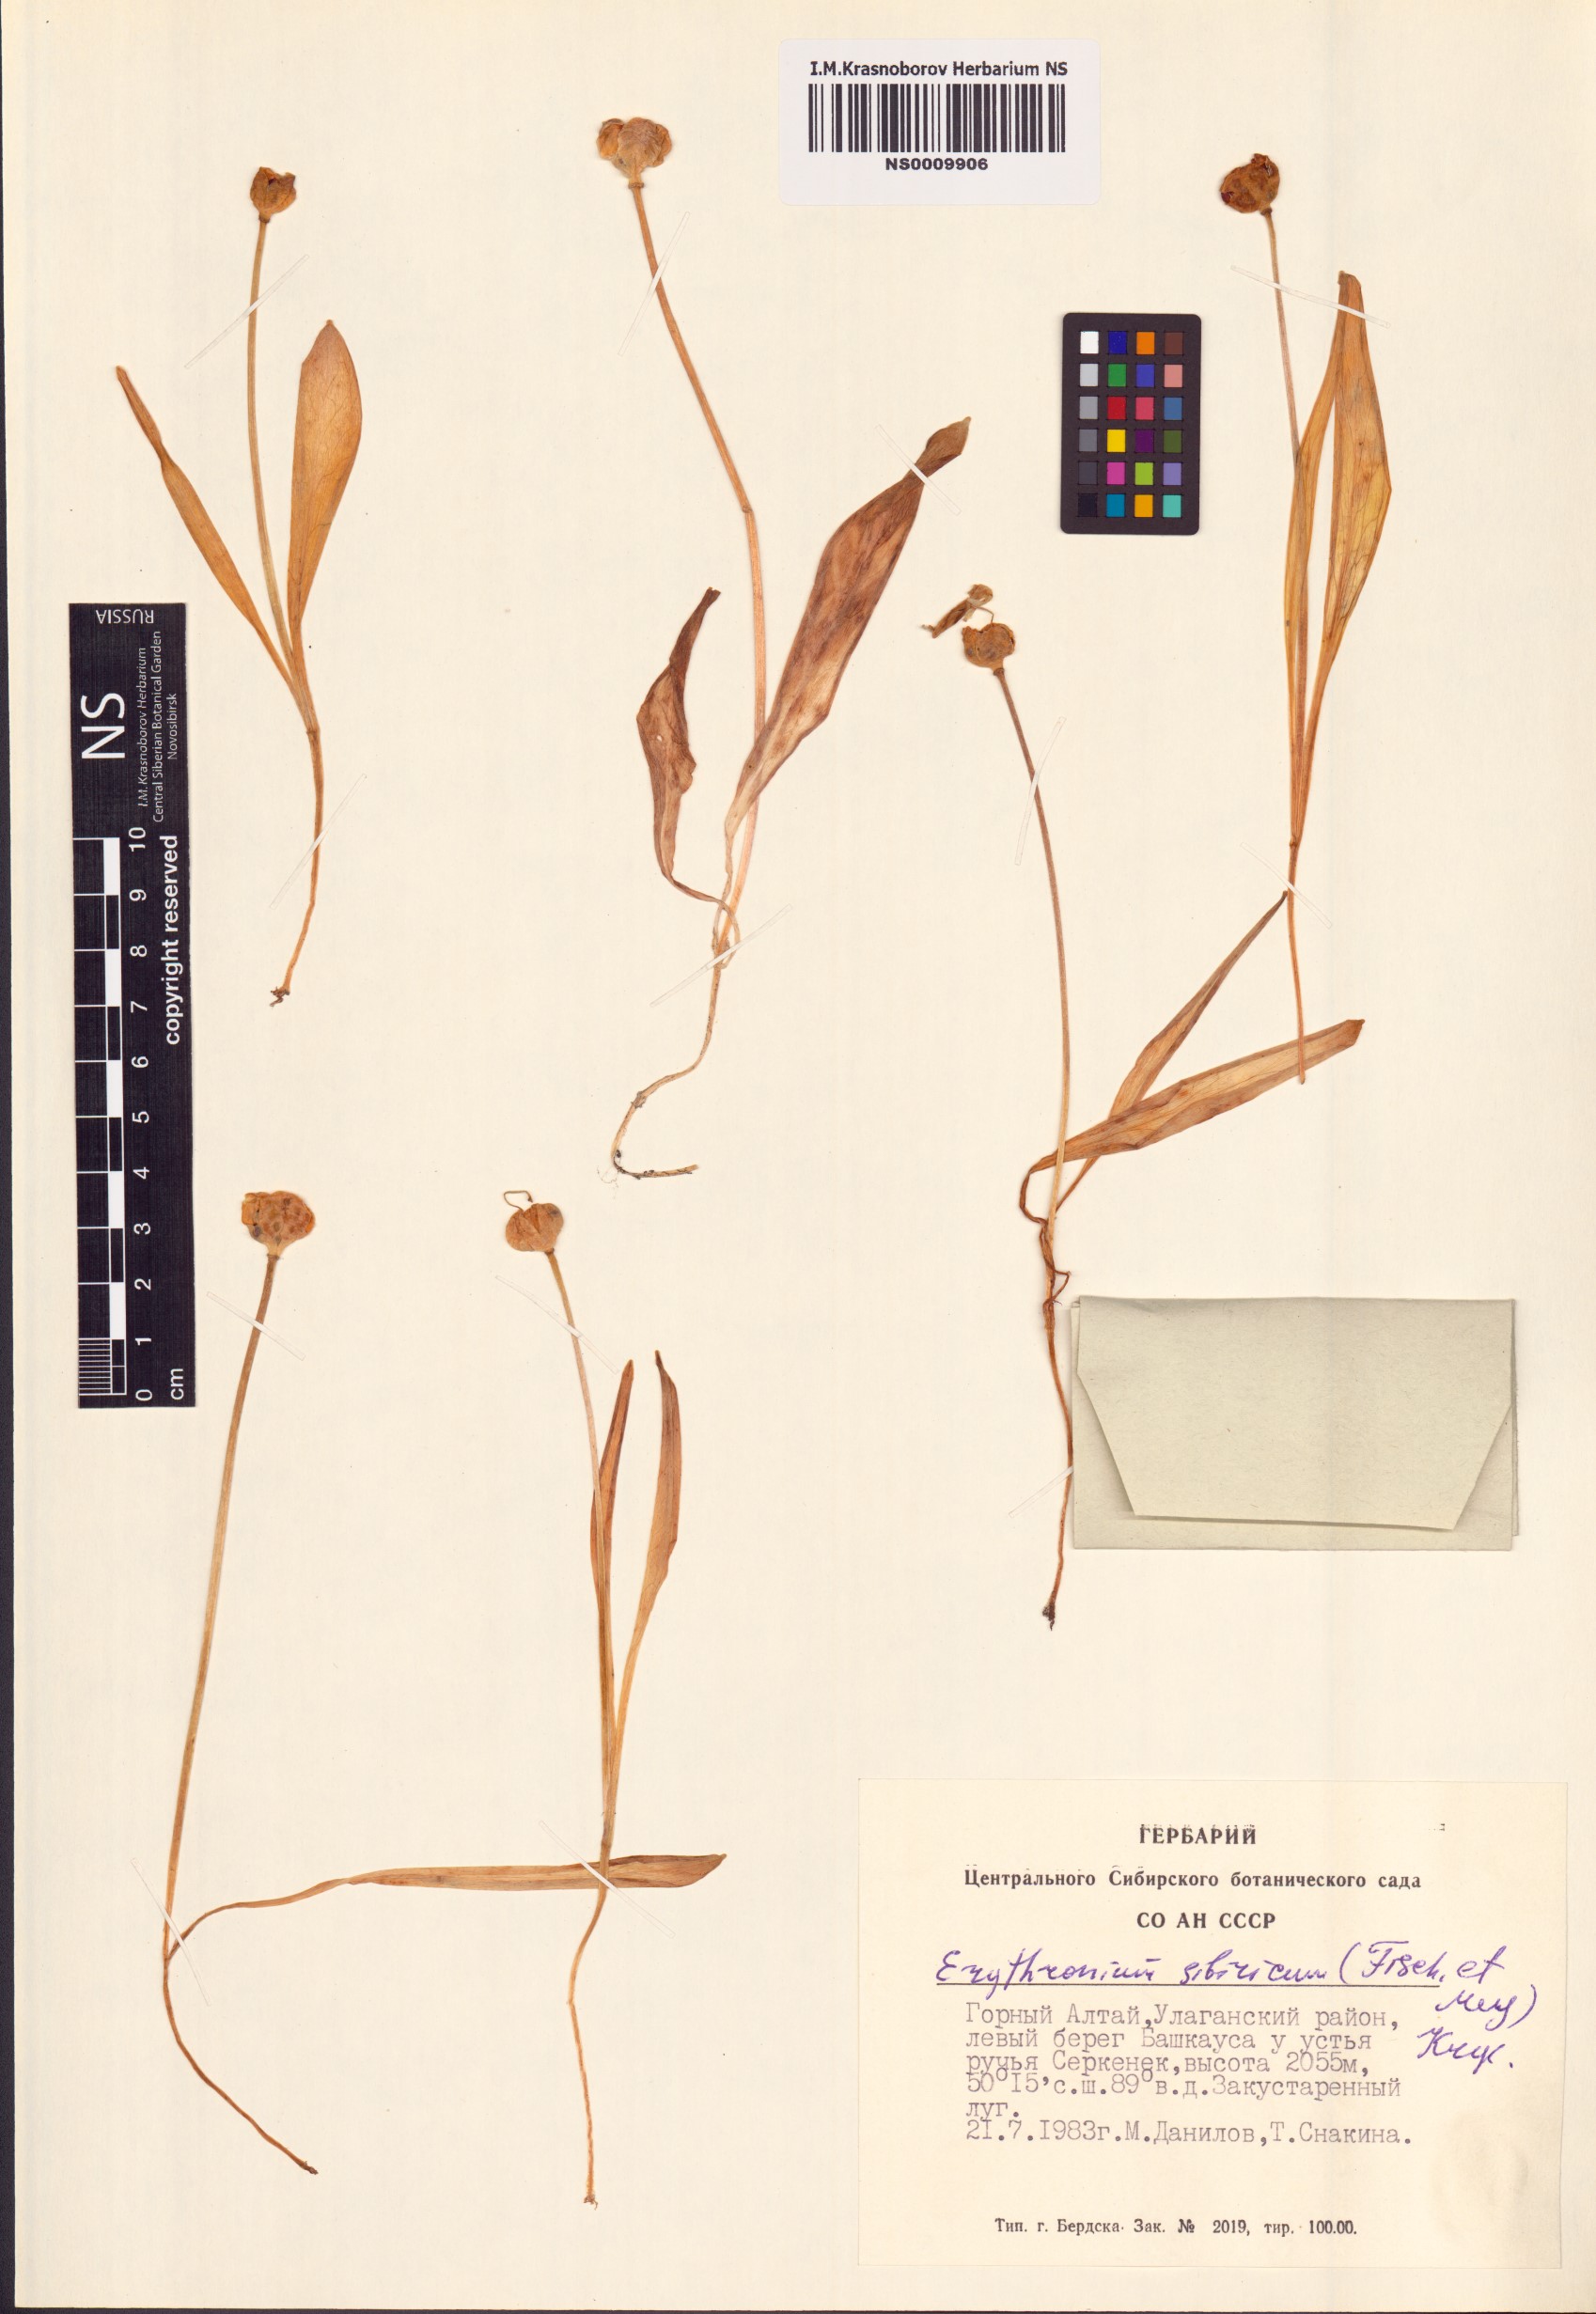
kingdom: Plantae
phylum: Tracheophyta
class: Liliopsida
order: Liliales
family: Liliaceae
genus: Erythronium
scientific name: Erythronium sibiricum
